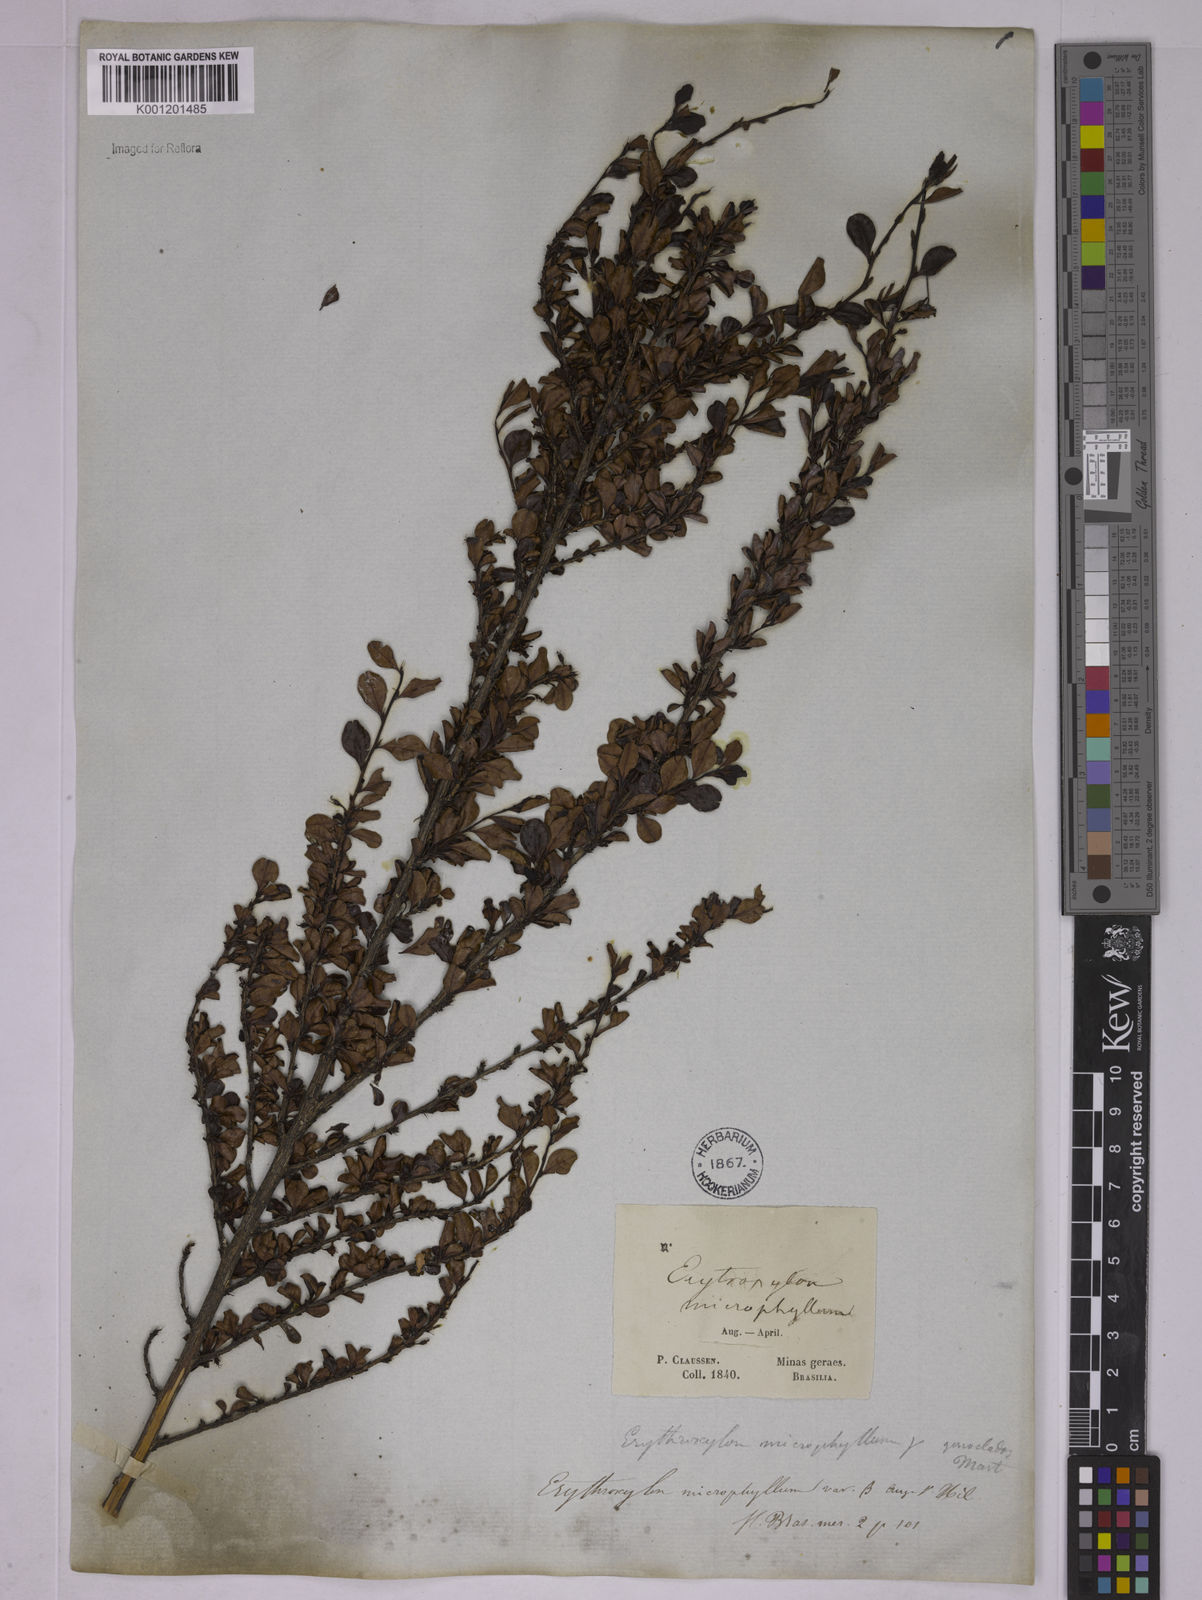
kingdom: Plantae
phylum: Tracheophyta
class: Magnoliopsida
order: Malpighiales
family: Erythroxylaceae
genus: Erythroxylum
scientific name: Erythroxylum
